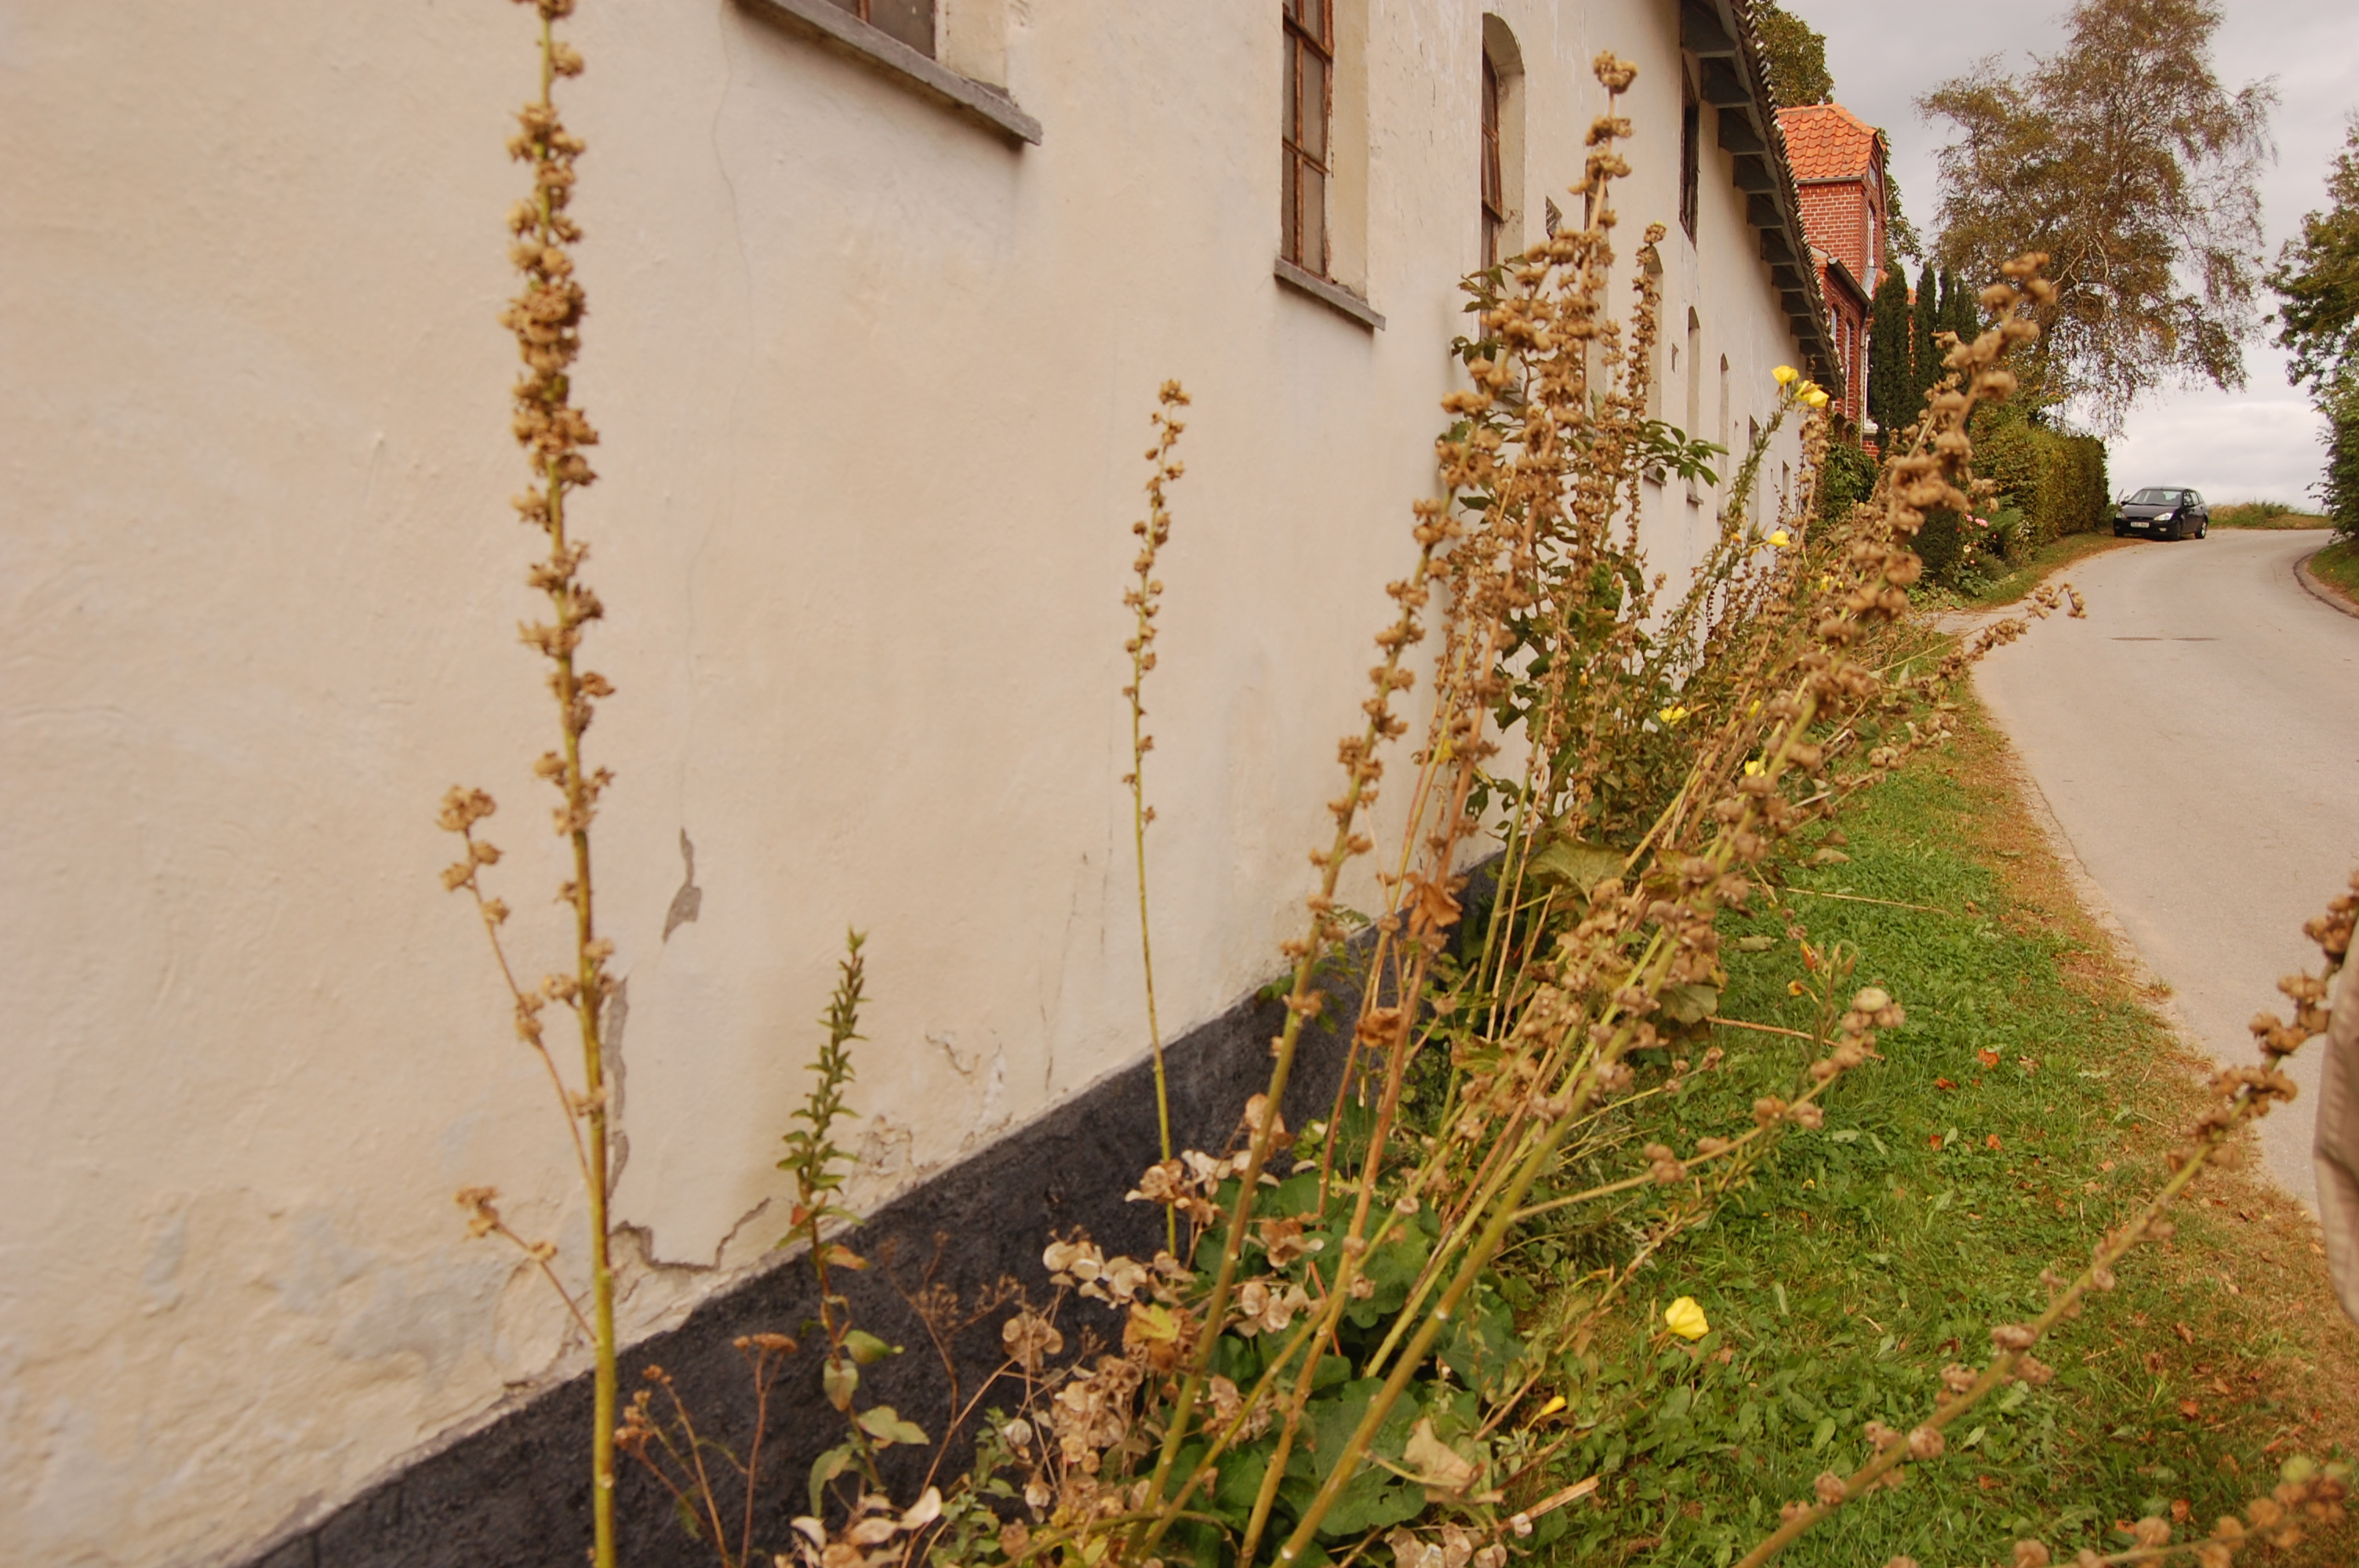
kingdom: Plantae
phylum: Tracheophyta
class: Magnoliopsida
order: Malvales
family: Malvaceae
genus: Alcea
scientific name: Alcea rosea
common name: Hollyhock
